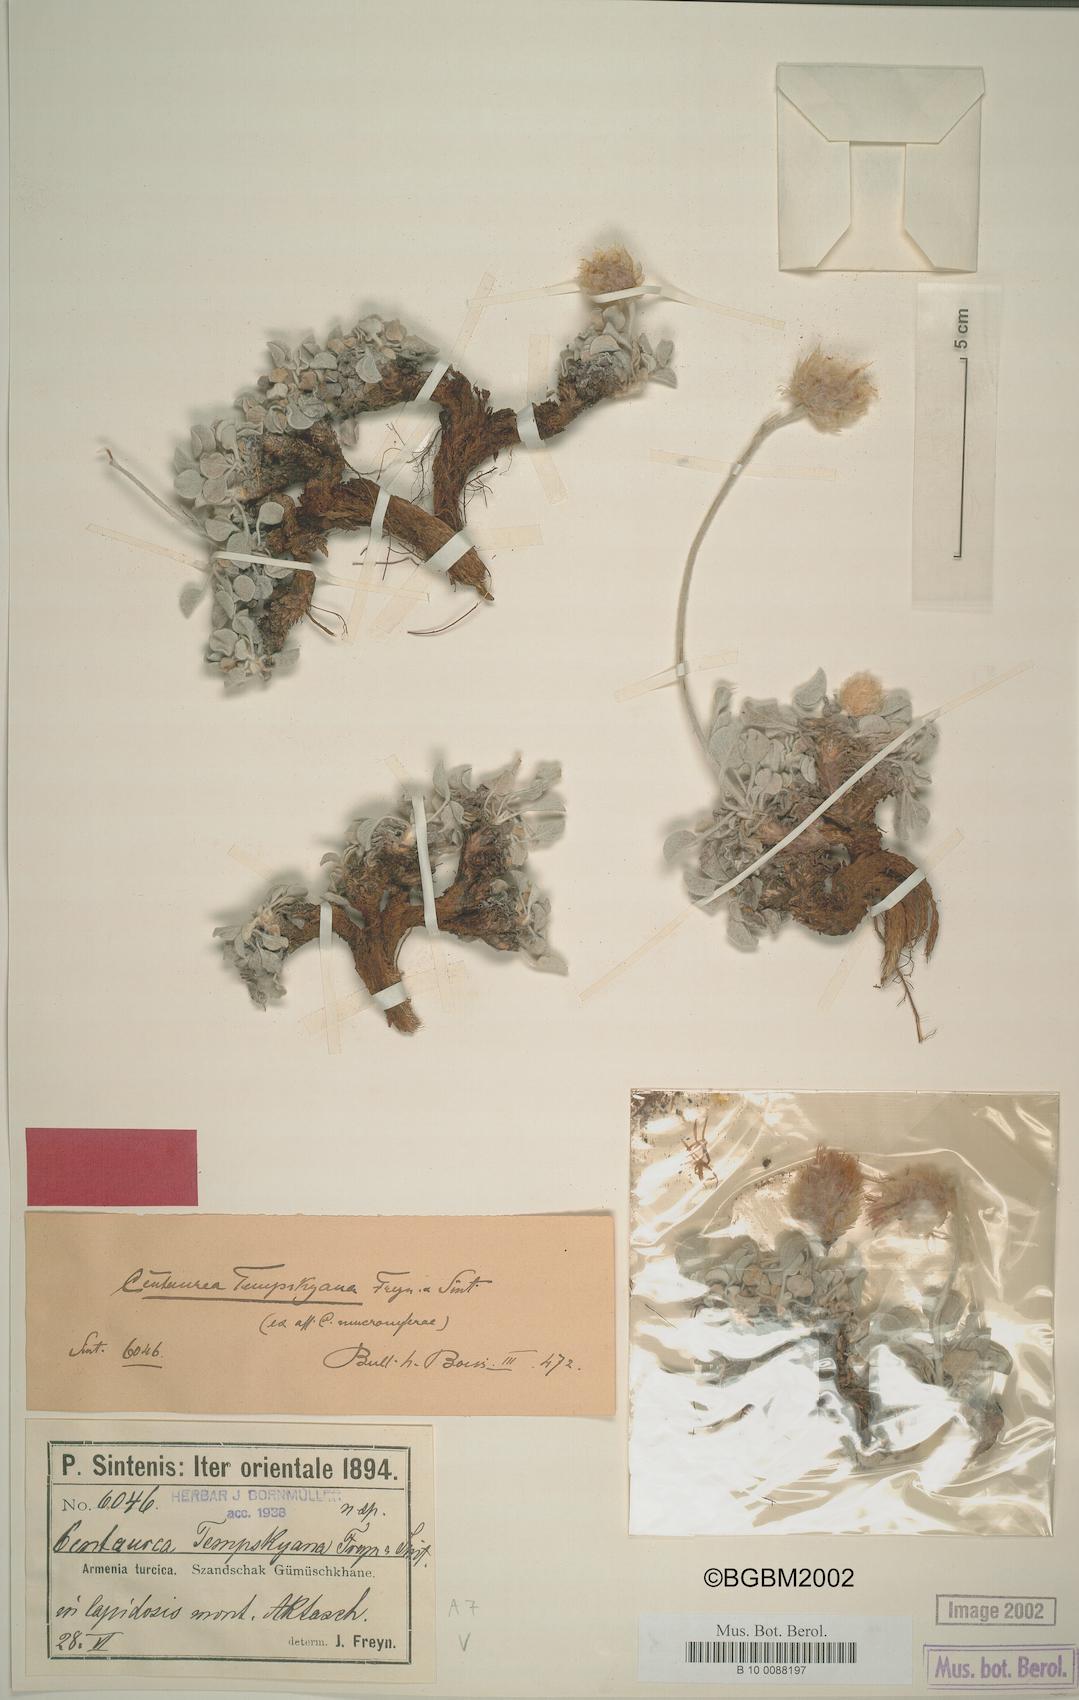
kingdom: Plantae
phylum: Tracheophyta
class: Magnoliopsida
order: Asterales
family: Asteraceae
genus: Psephellus
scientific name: Psephellus mucronifer
